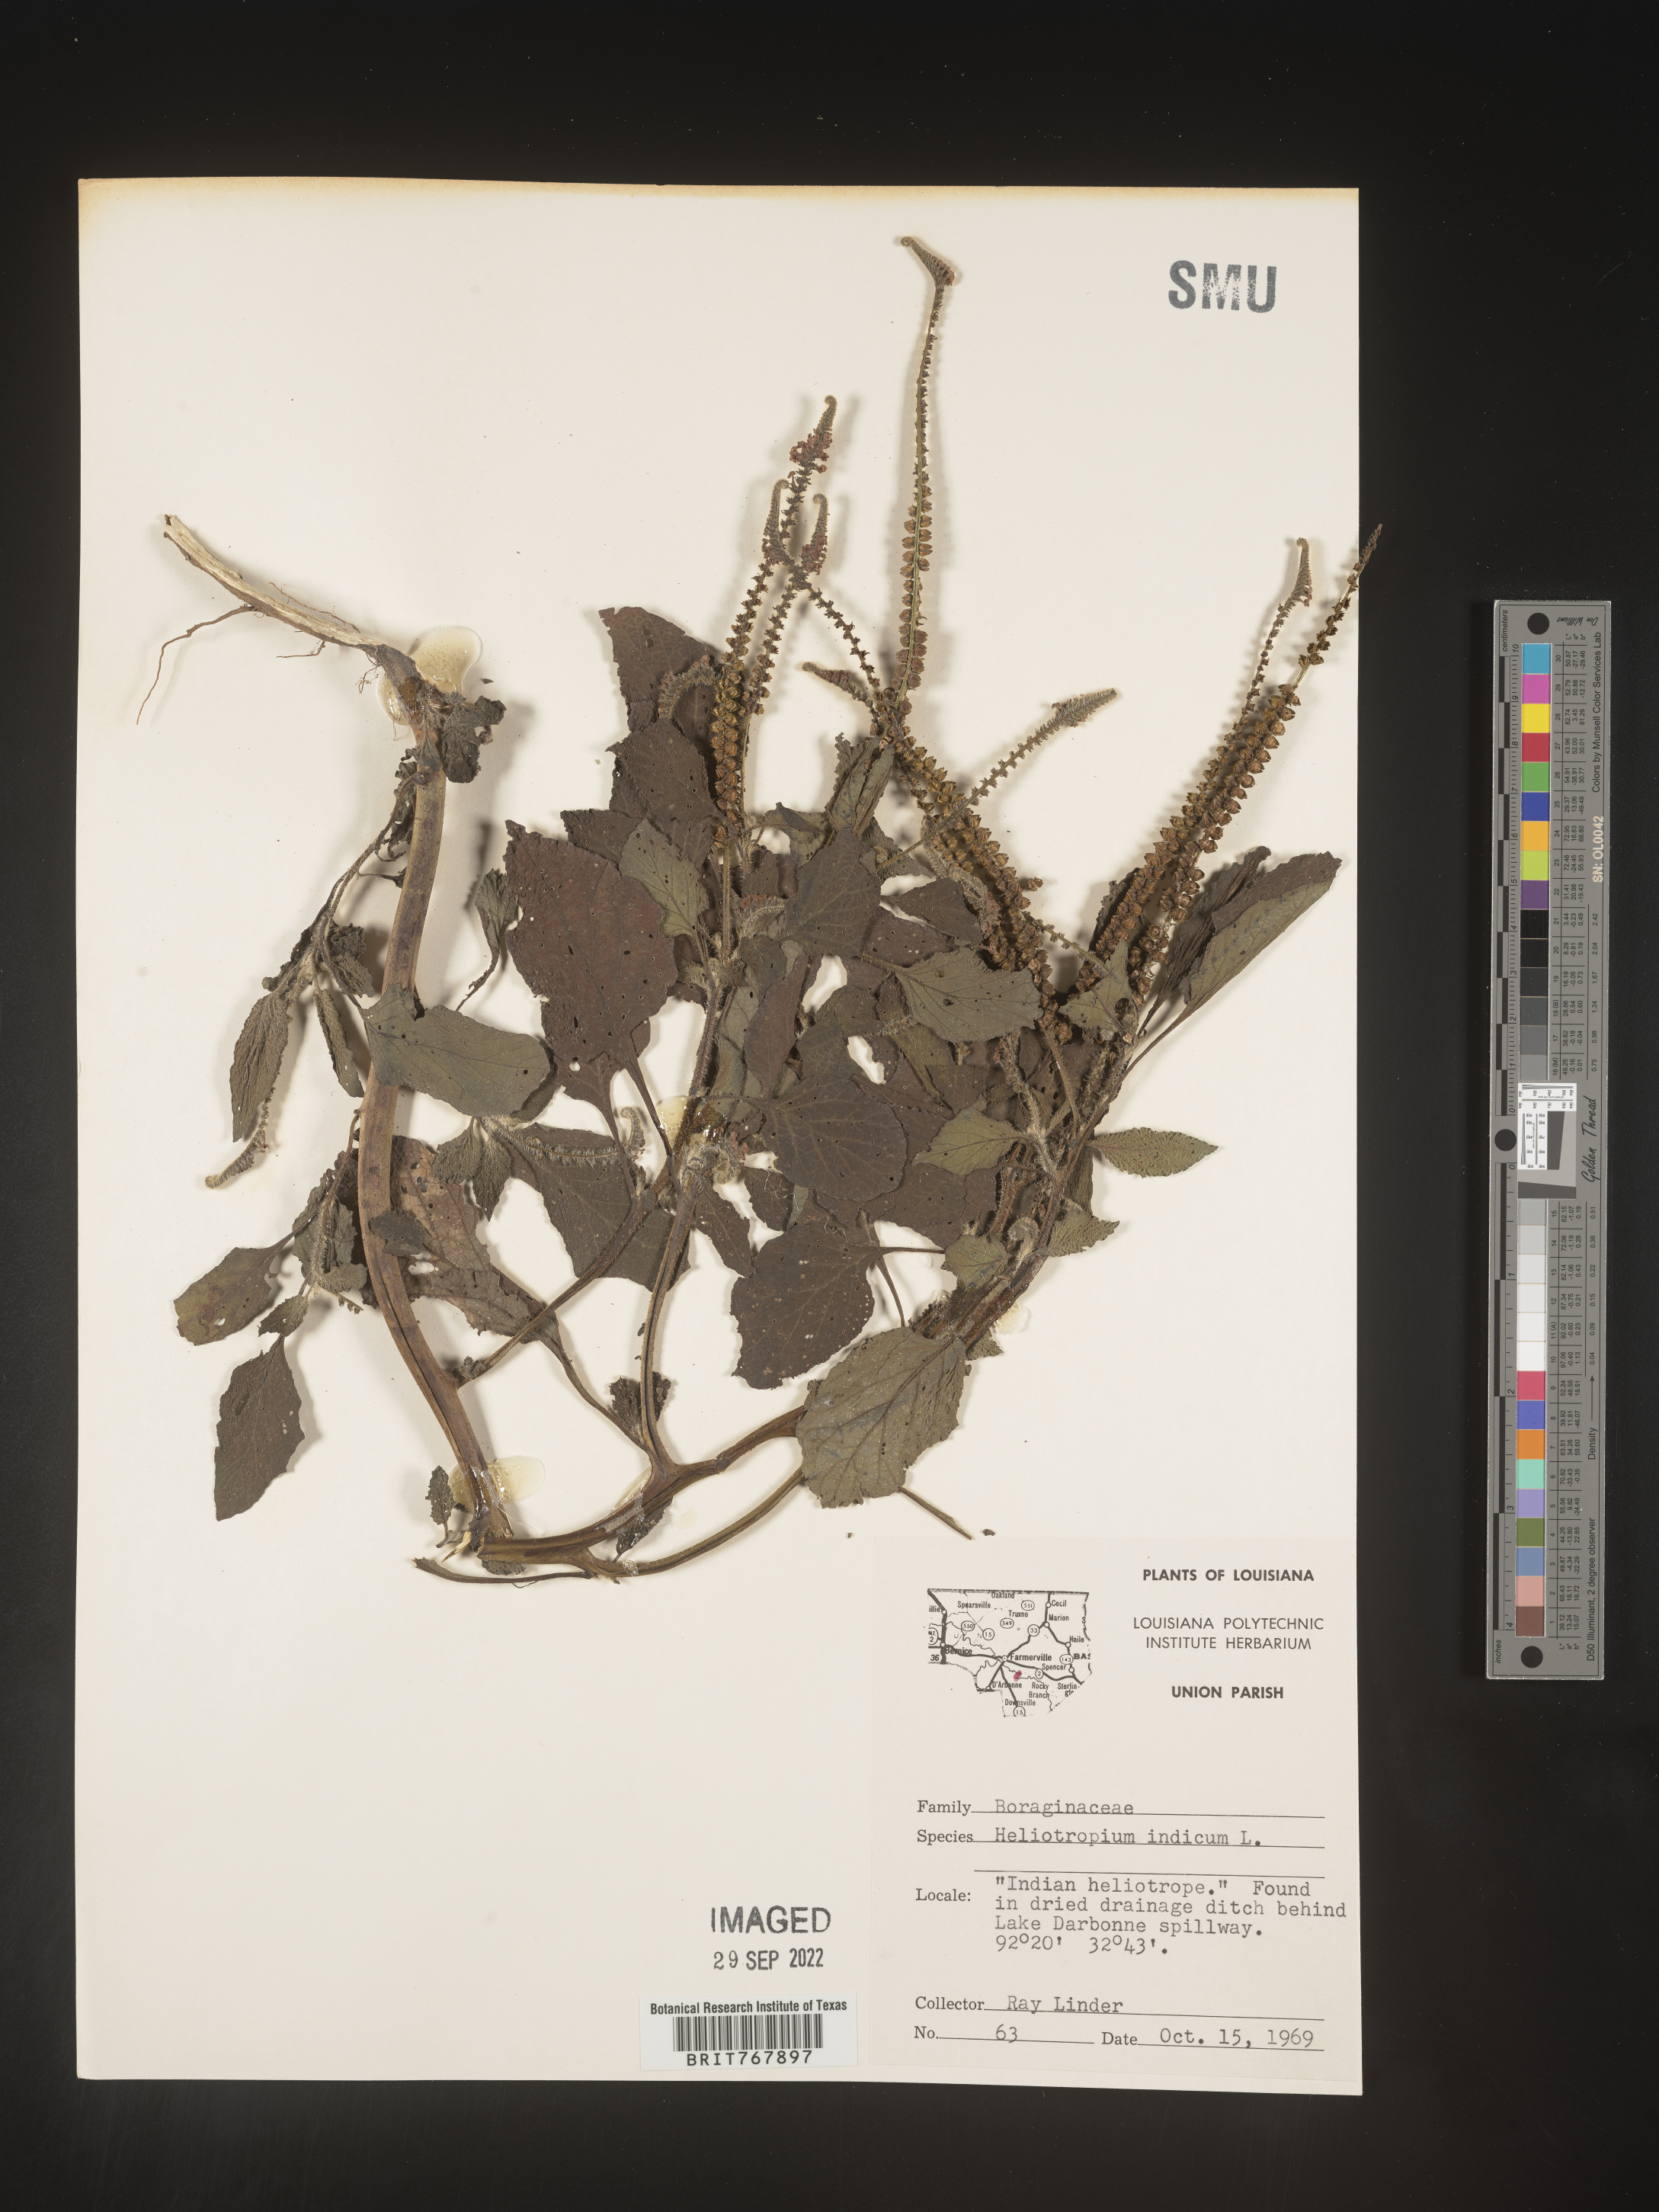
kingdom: Plantae
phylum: Tracheophyta
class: Magnoliopsida
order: Boraginales
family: Heliotropiaceae
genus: Heliotropium
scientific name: Heliotropium indicum
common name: Indian heliotrope
